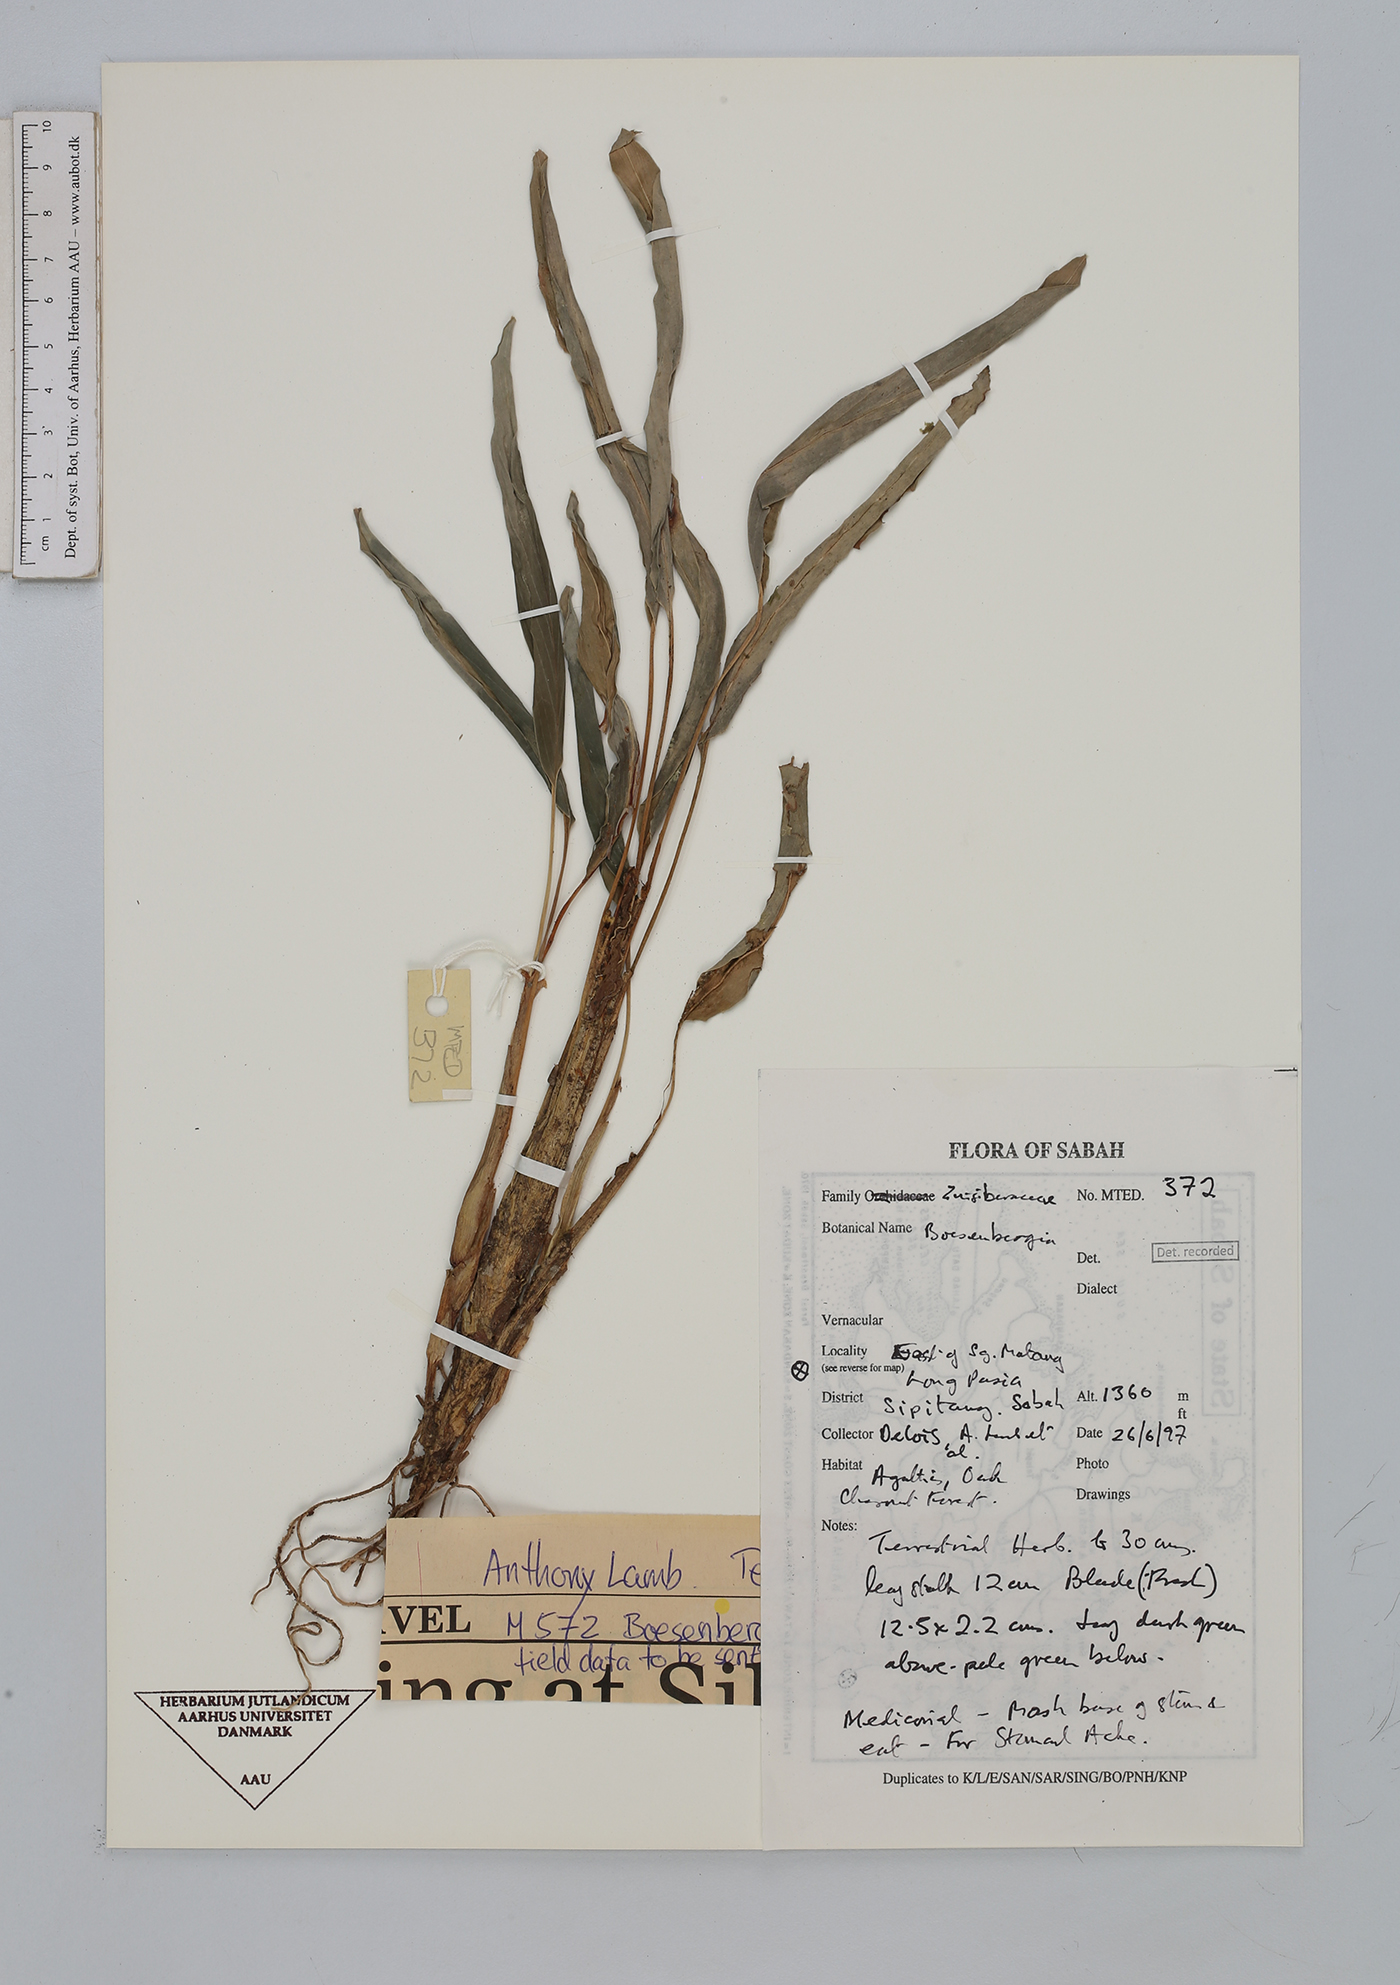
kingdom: Plantae
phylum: Tracheophyta
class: Liliopsida
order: Zingiberales
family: Zingiberaceae
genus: Boesenbergia
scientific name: Boesenbergia
